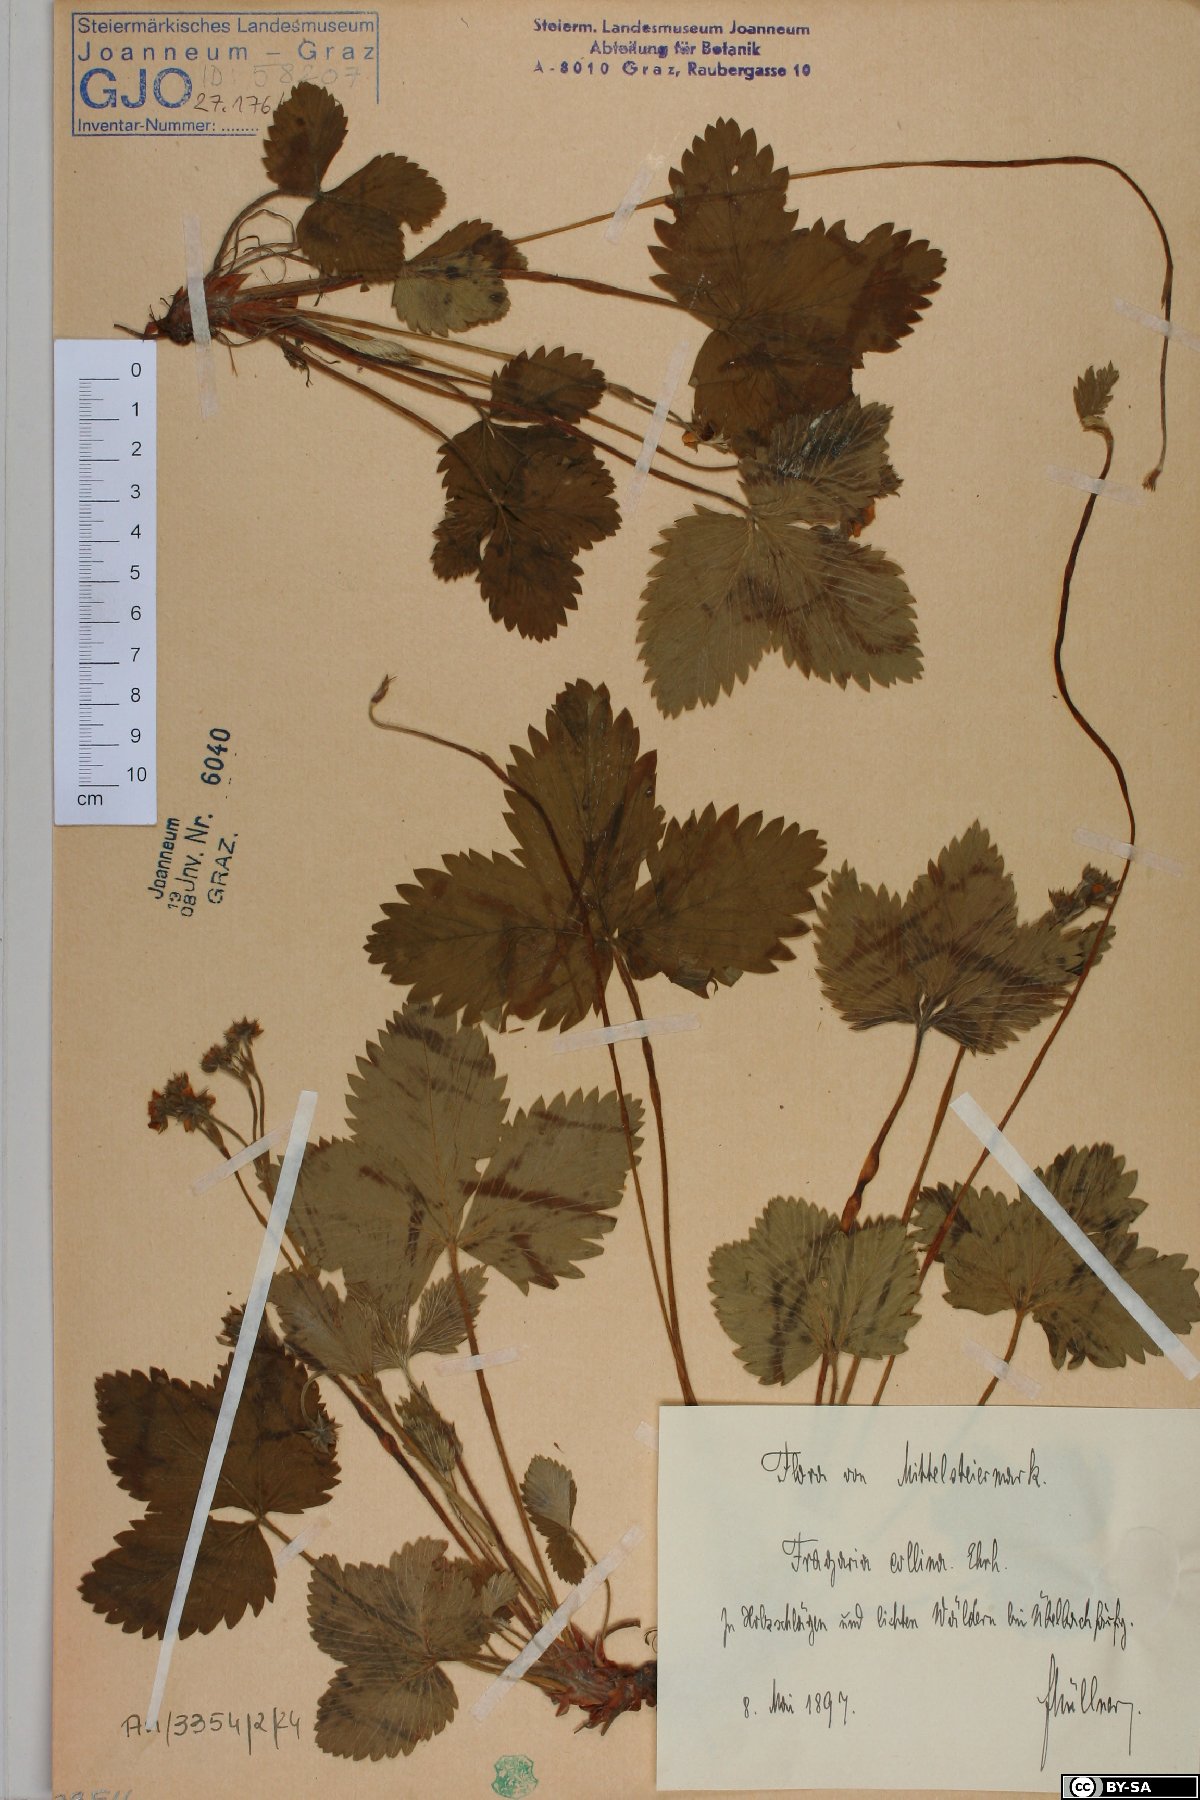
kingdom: Plantae
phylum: Tracheophyta
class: Magnoliopsida
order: Rosales
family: Rosaceae
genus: Fragaria
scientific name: Fragaria vesca
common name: Wild strawberry
